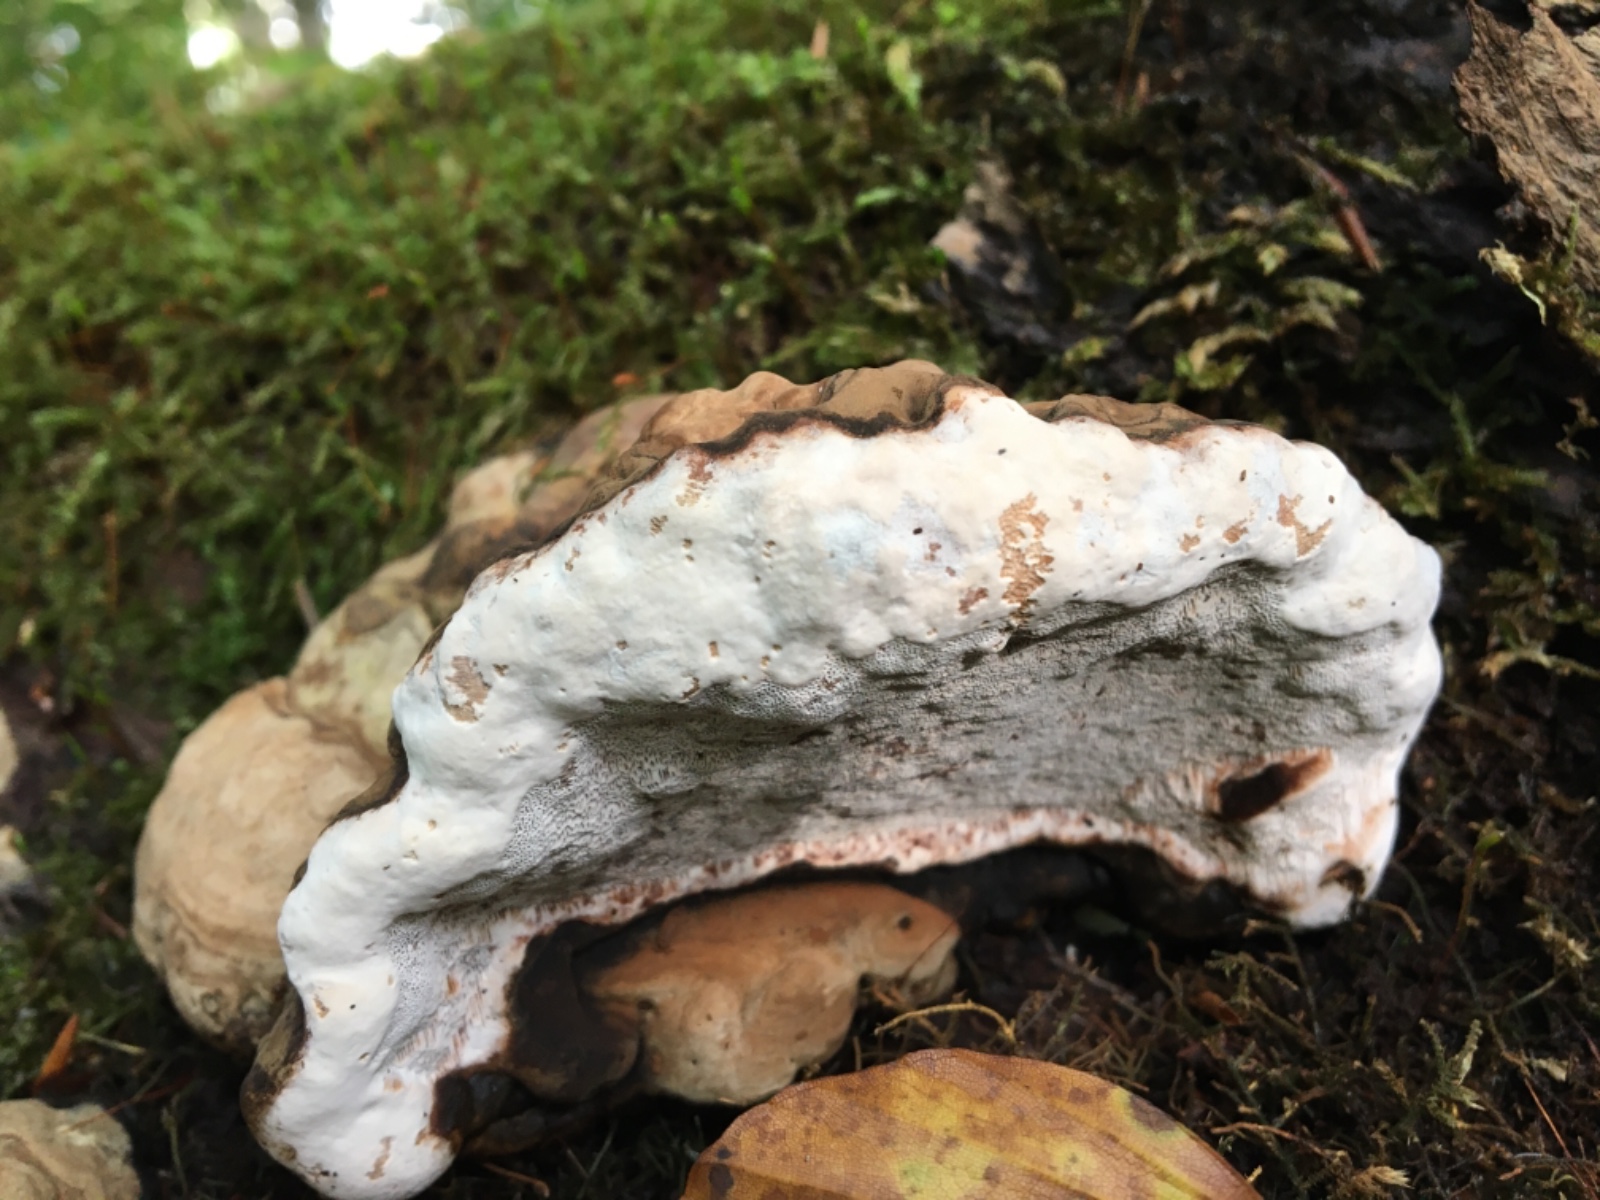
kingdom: Fungi
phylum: Basidiomycota
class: Agaricomycetes
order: Polyporales
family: Polyporaceae
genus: Ganoderma
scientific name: Ganoderma applanatum
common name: flad lakporesvamp
